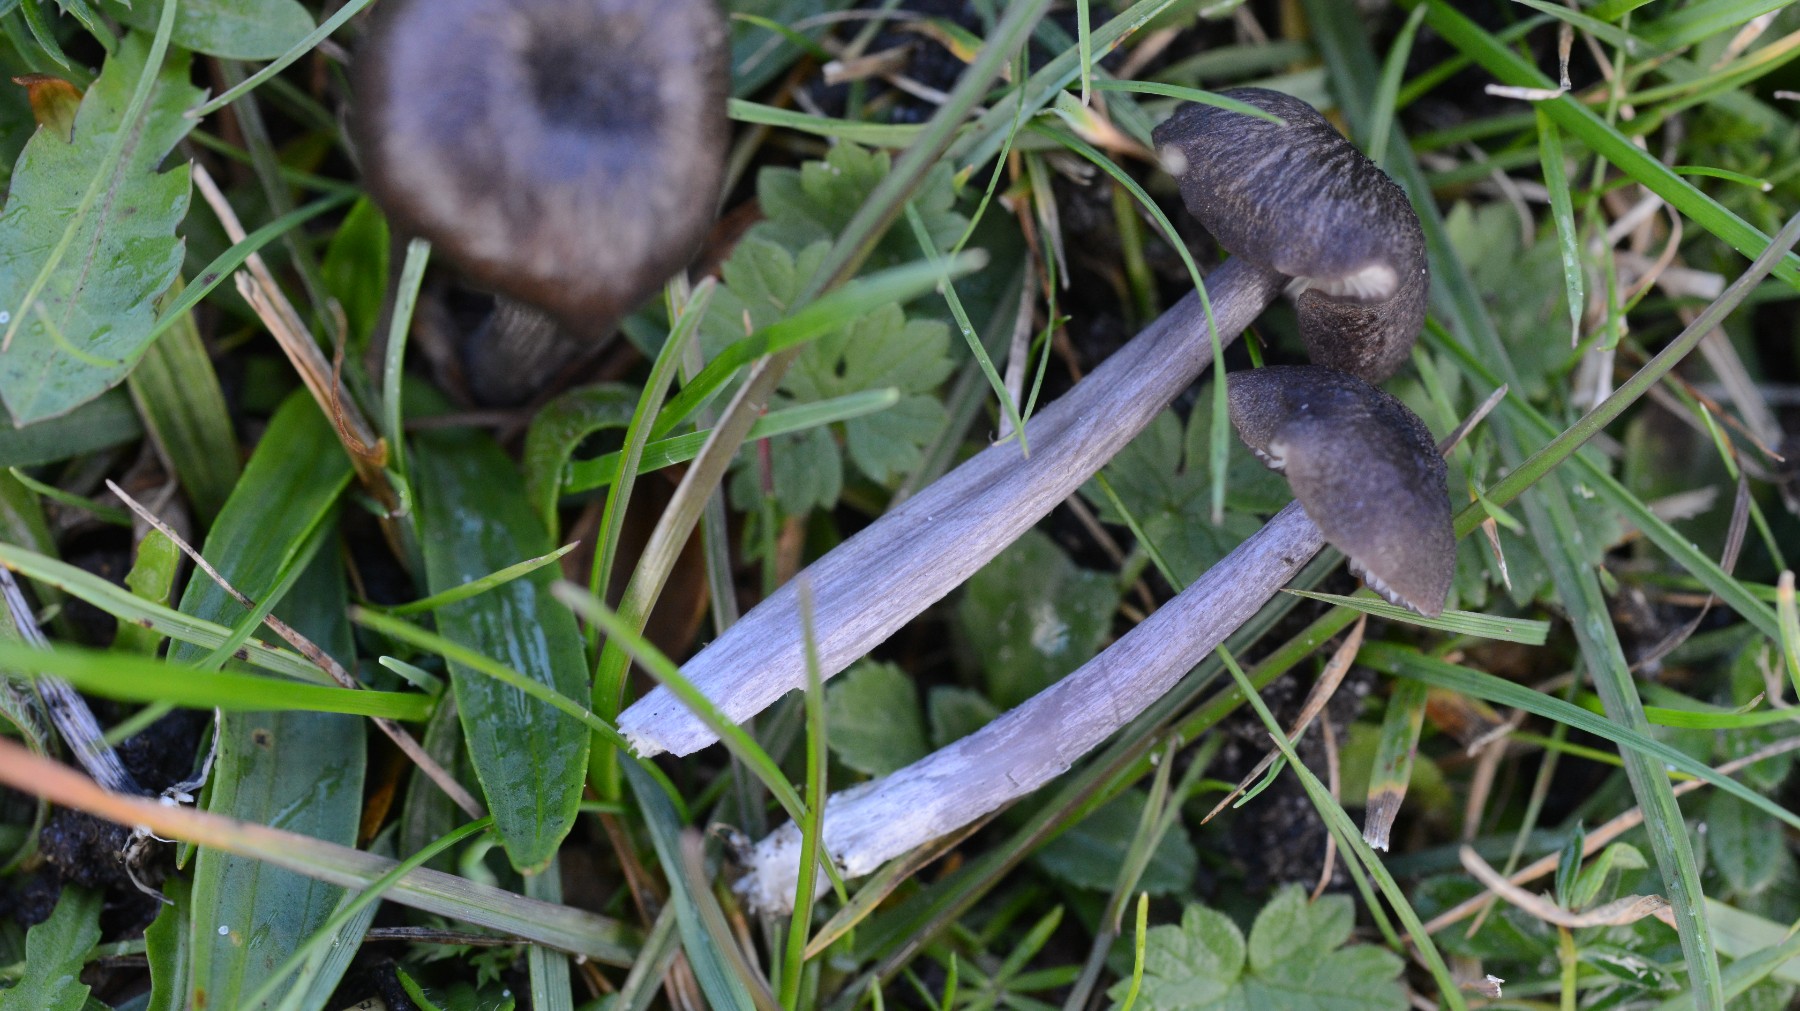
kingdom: Fungi
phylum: Basidiomycota
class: Agaricomycetes
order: Agaricales
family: Entolomataceae
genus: Entoloma
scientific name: Entoloma atrocoeruleum
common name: sortblå rødblad
